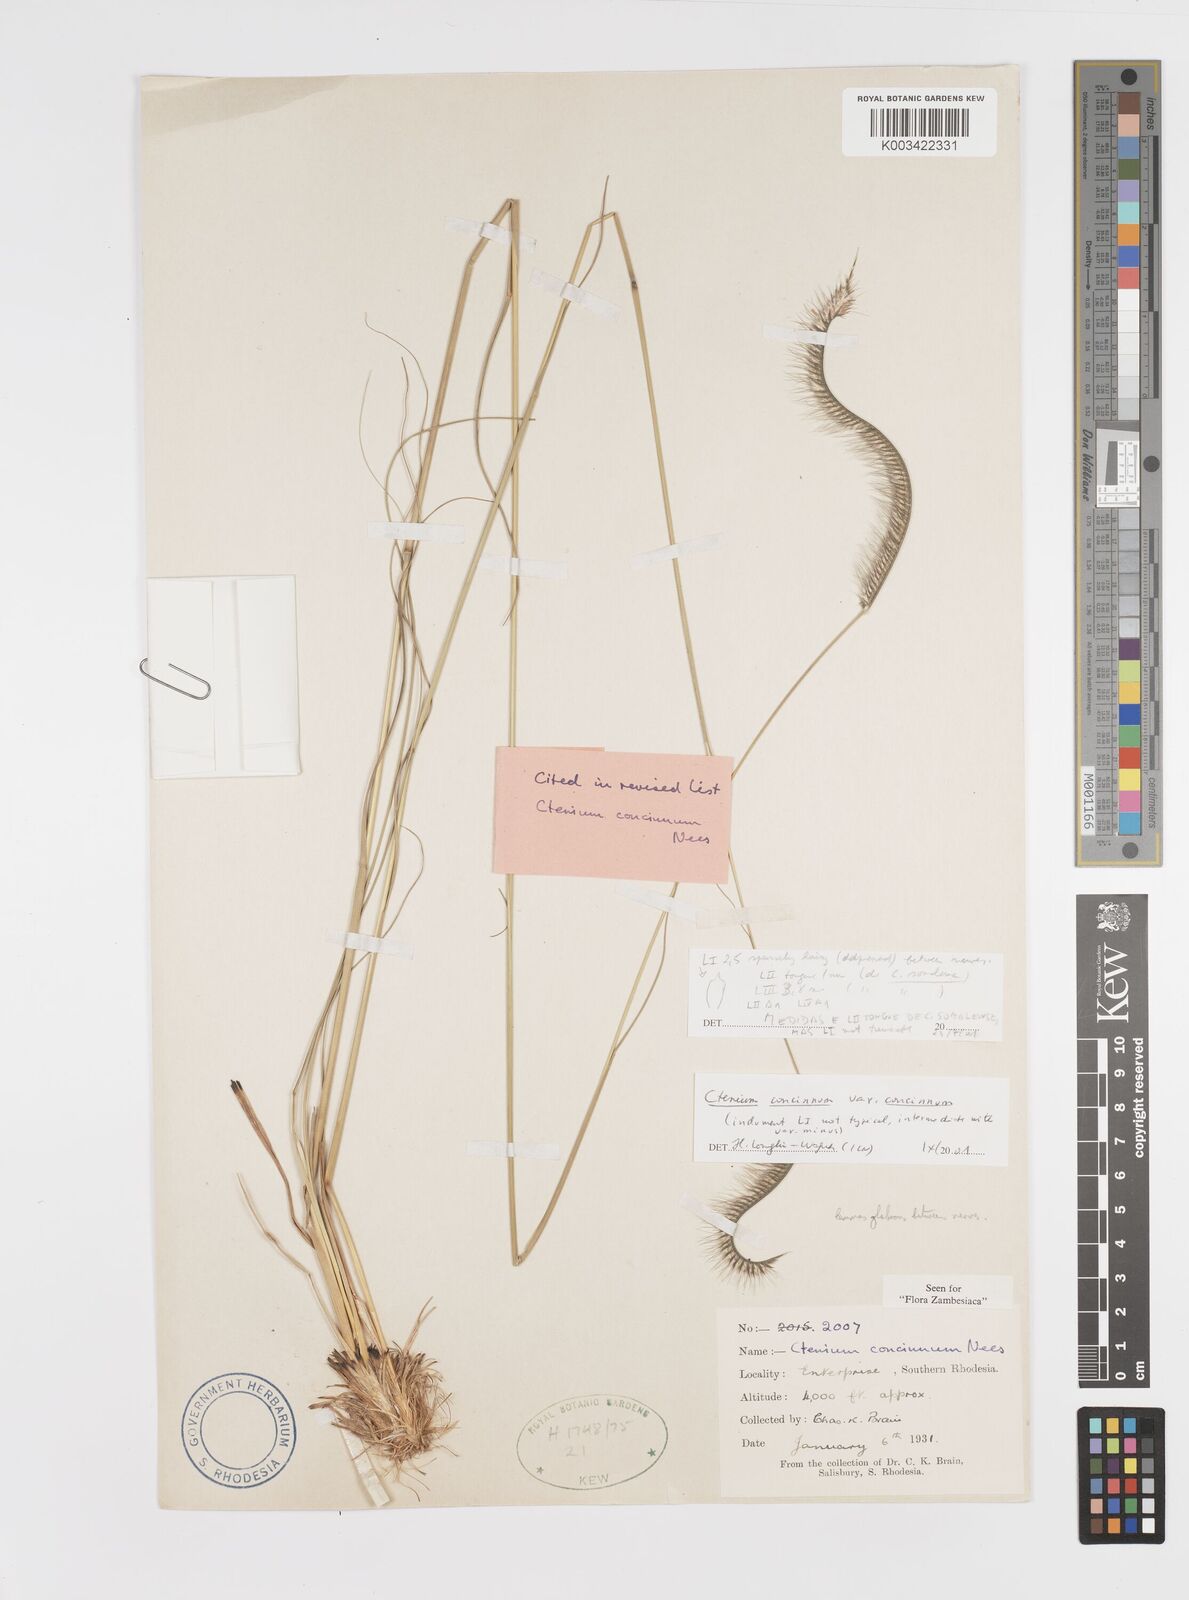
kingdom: Plantae
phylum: Tracheophyta
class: Liliopsida
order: Poales
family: Poaceae
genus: Ctenium
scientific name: Ctenium concinnum
